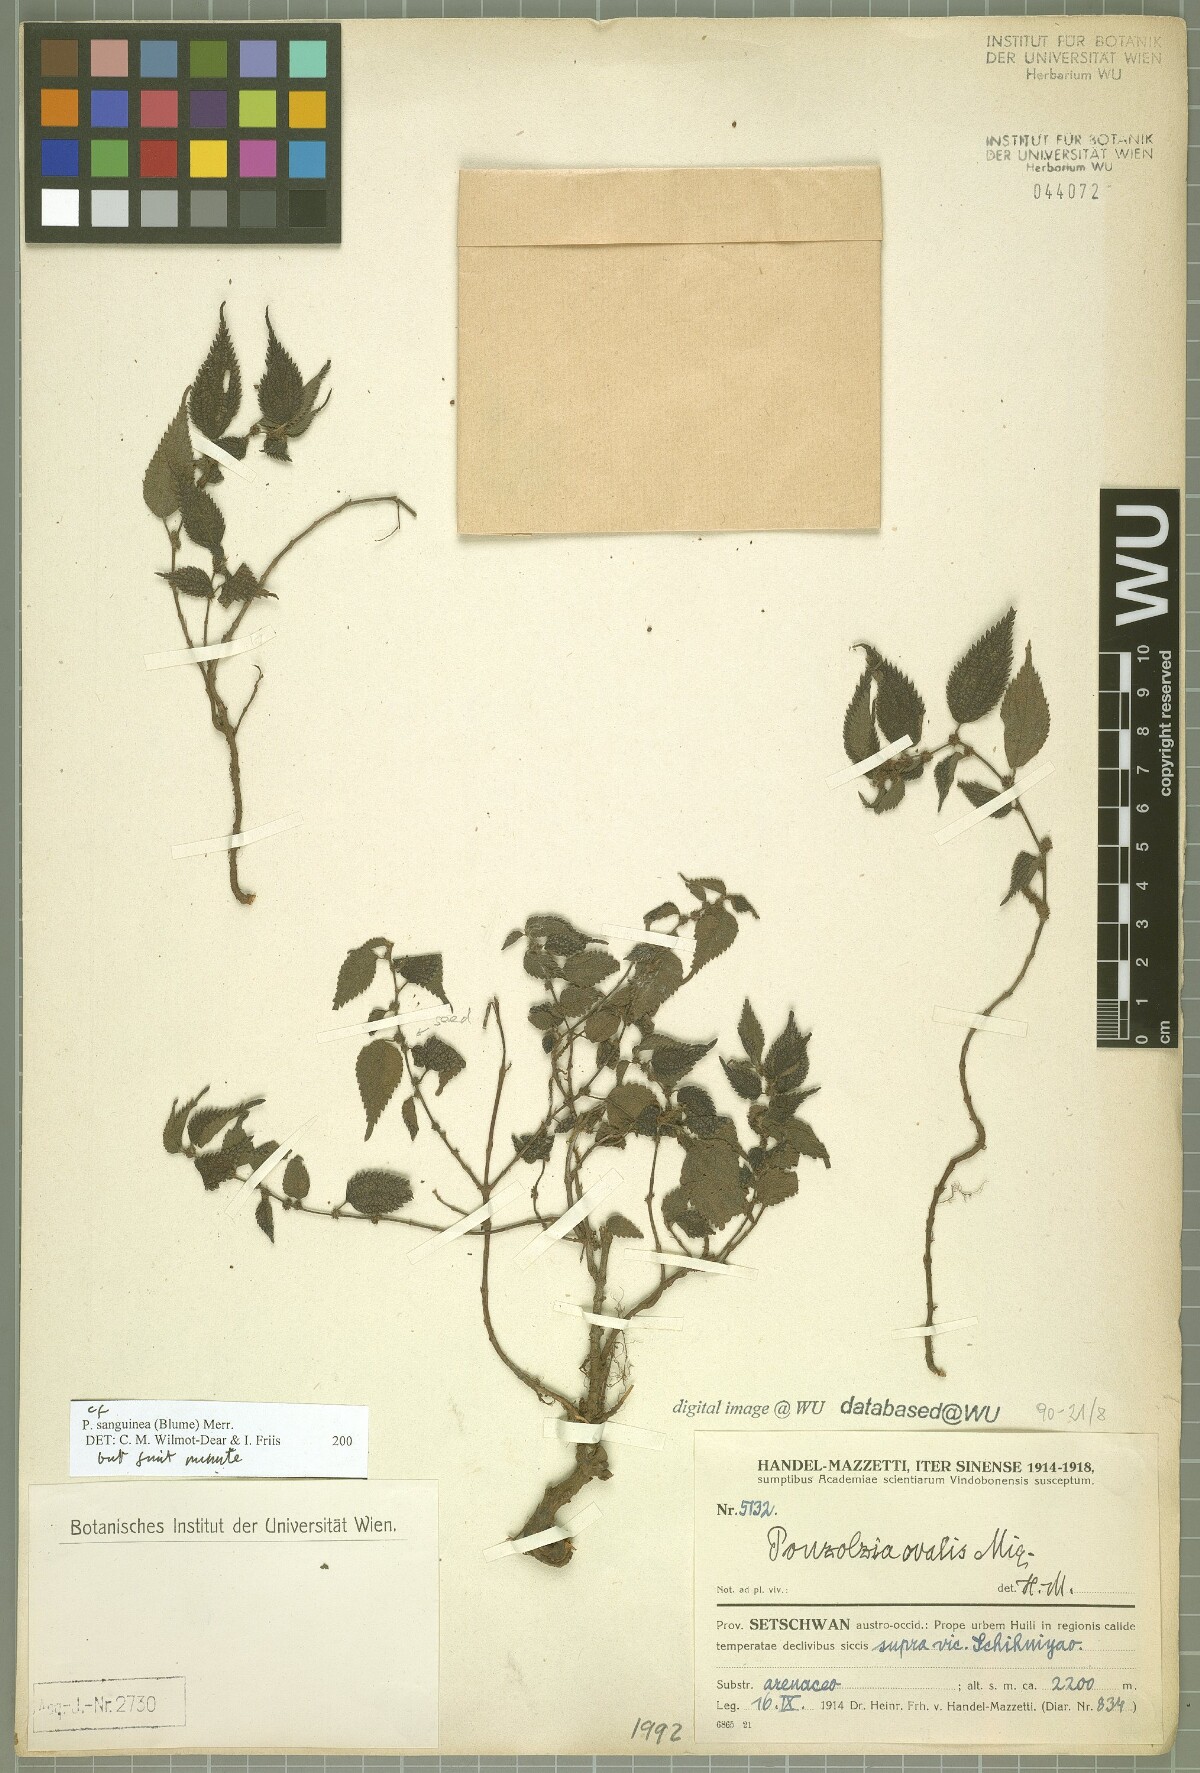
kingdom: Plantae
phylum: Tracheophyta
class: Magnoliopsida
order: Rosales
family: Urticaceae
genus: Pouzolzia
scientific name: Pouzolzia sanguinea
